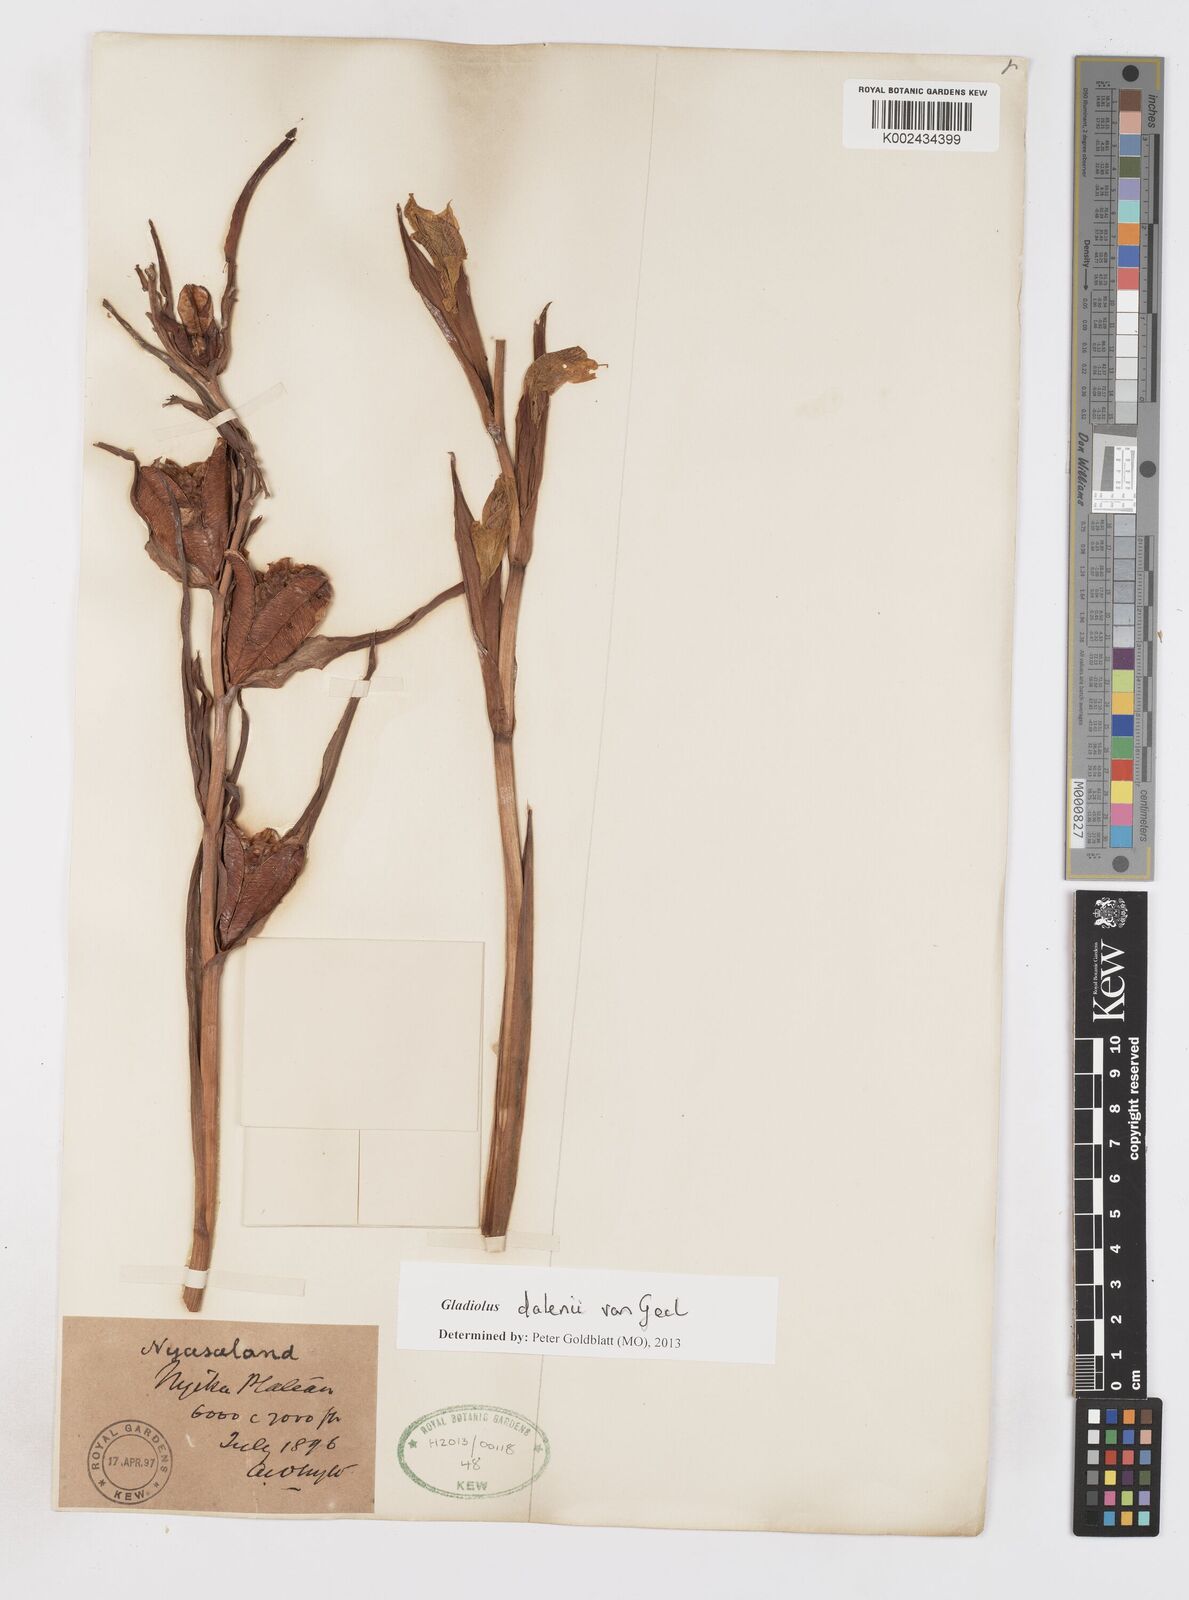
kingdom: Plantae
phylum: Tracheophyta
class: Liliopsida
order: Asparagales
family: Iridaceae
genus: Gladiolus
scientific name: Gladiolus dalenii
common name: Cornflag
